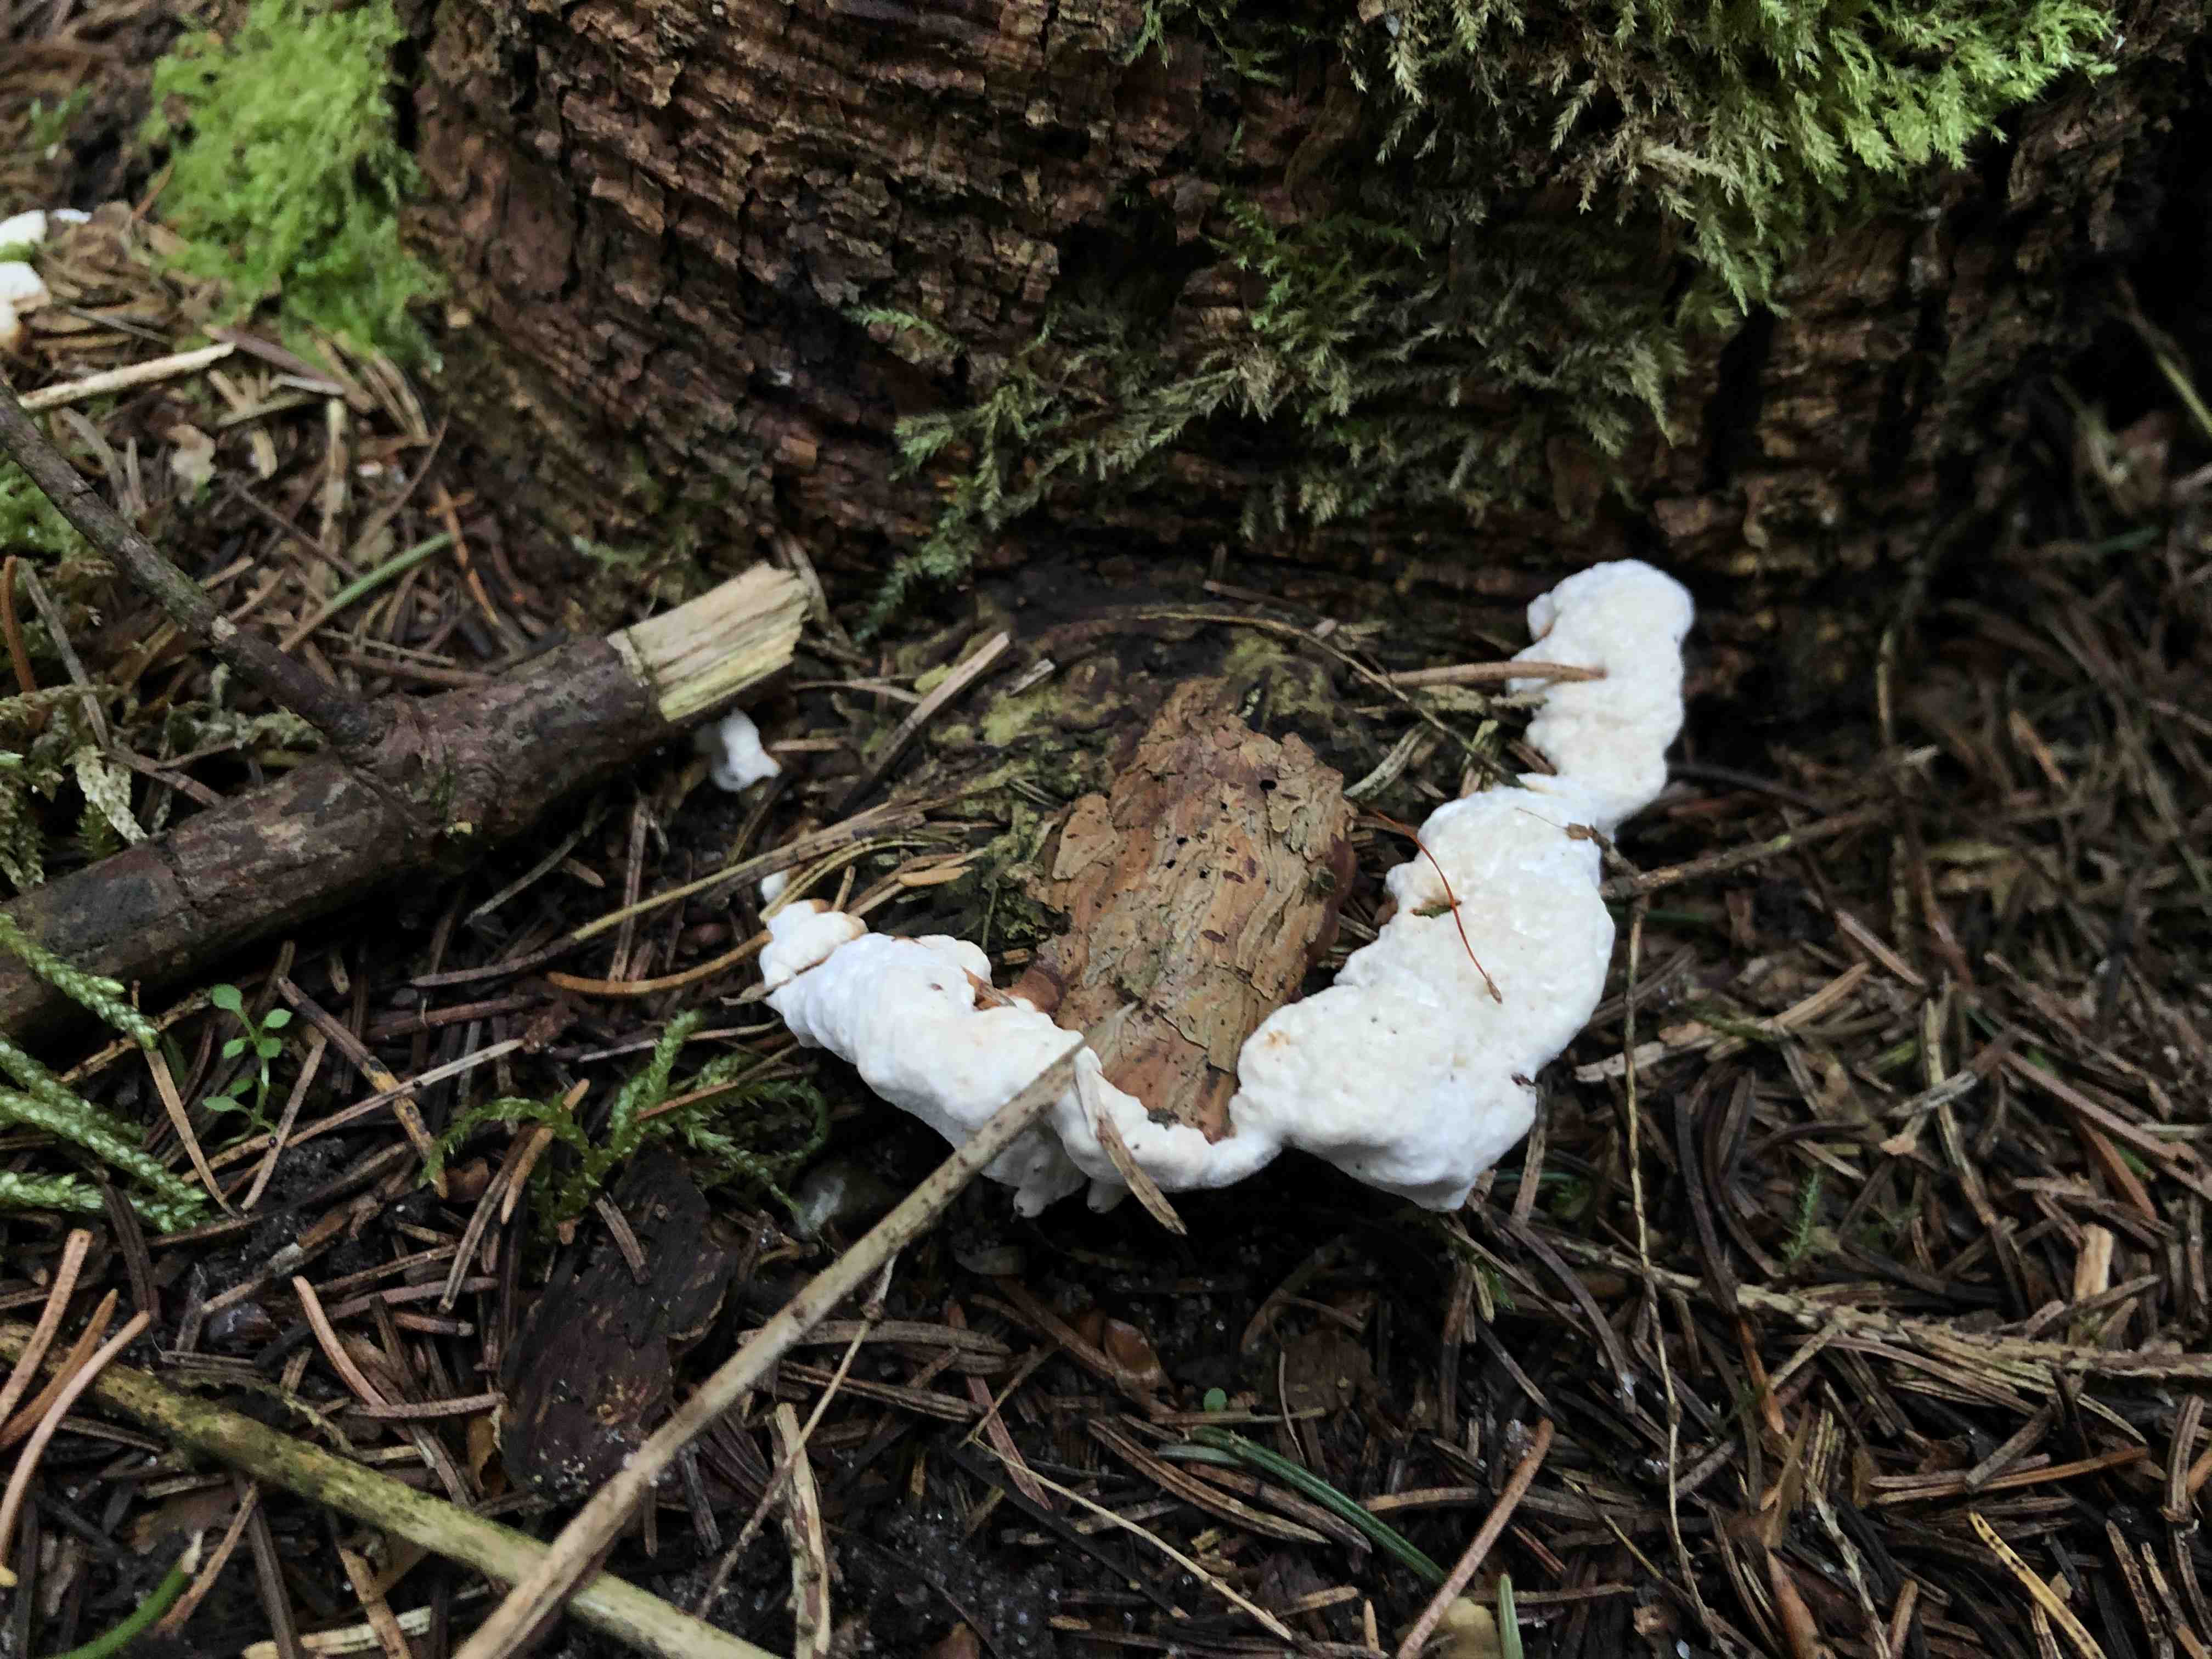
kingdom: Fungi
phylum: Basidiomycota
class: Agaricomycetes
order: Russulales
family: Bondarzewiaceae
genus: Heterobasidion
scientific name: Heterobasidion annosum
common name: almindelig rodfordærver
